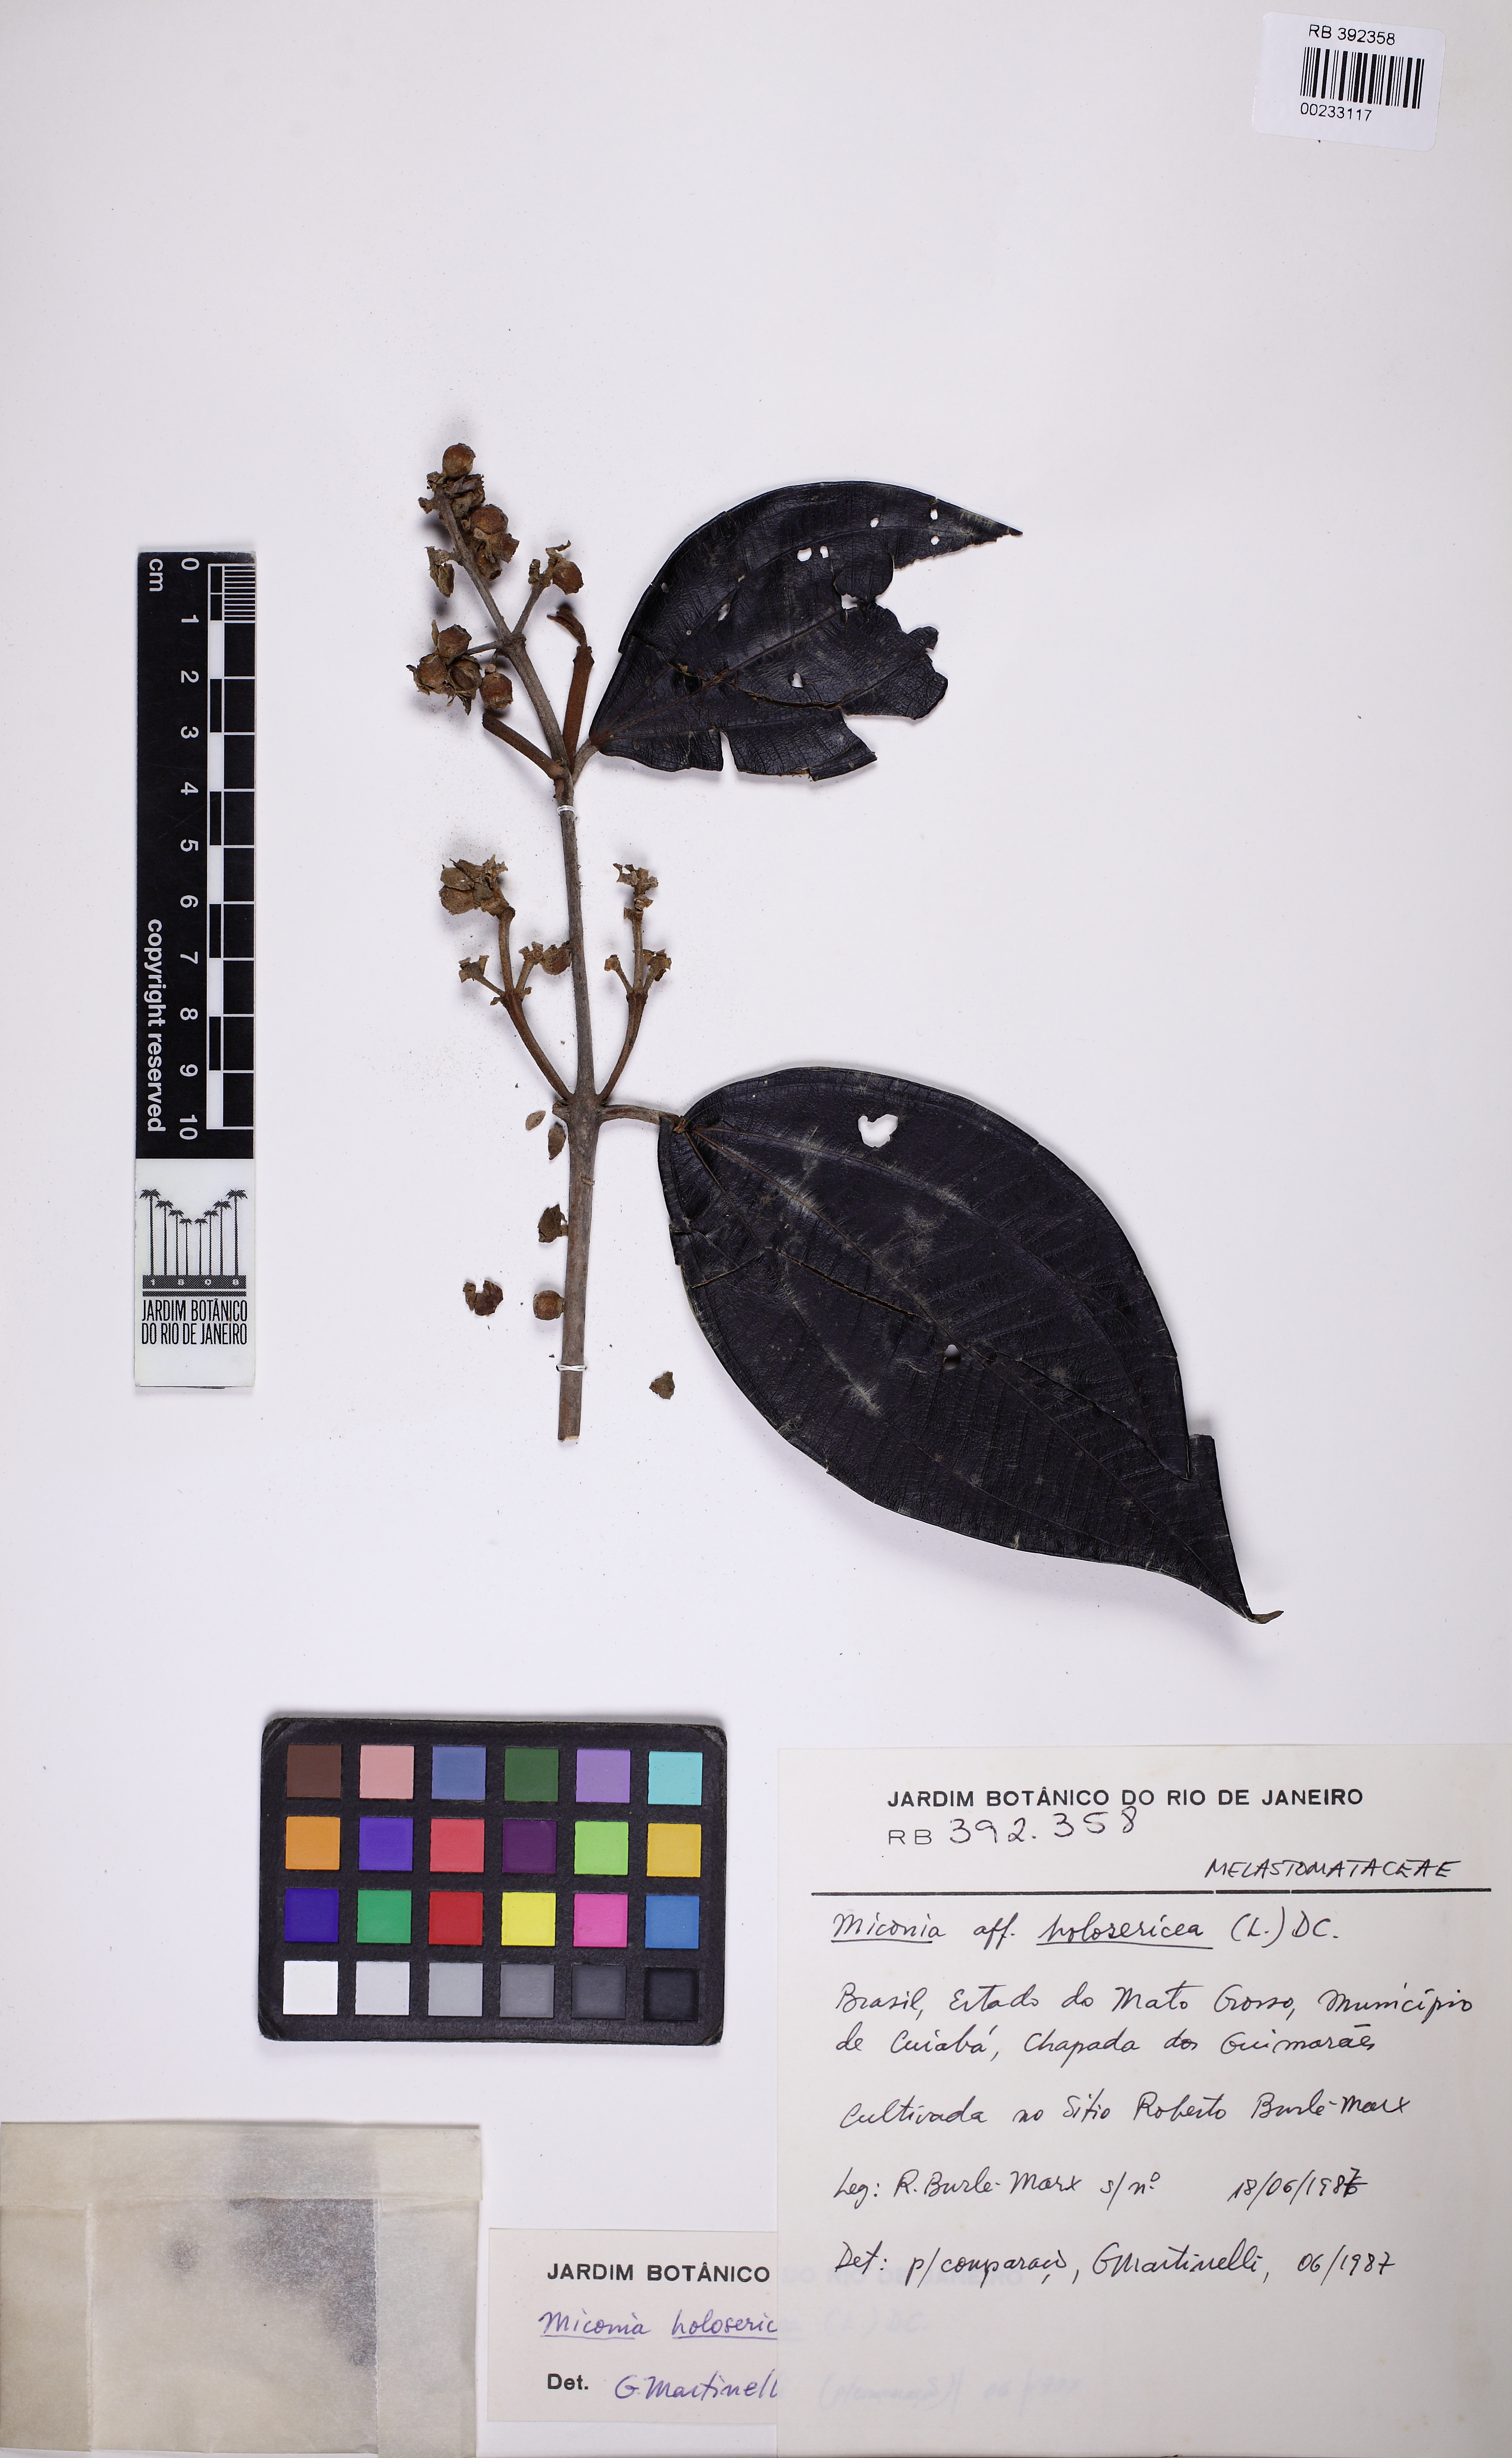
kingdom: Plantae
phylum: Tracheophyta
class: Magnoliopsida
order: Myrtales
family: Melastomataceae
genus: Miconia
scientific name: Miconia holosericea
